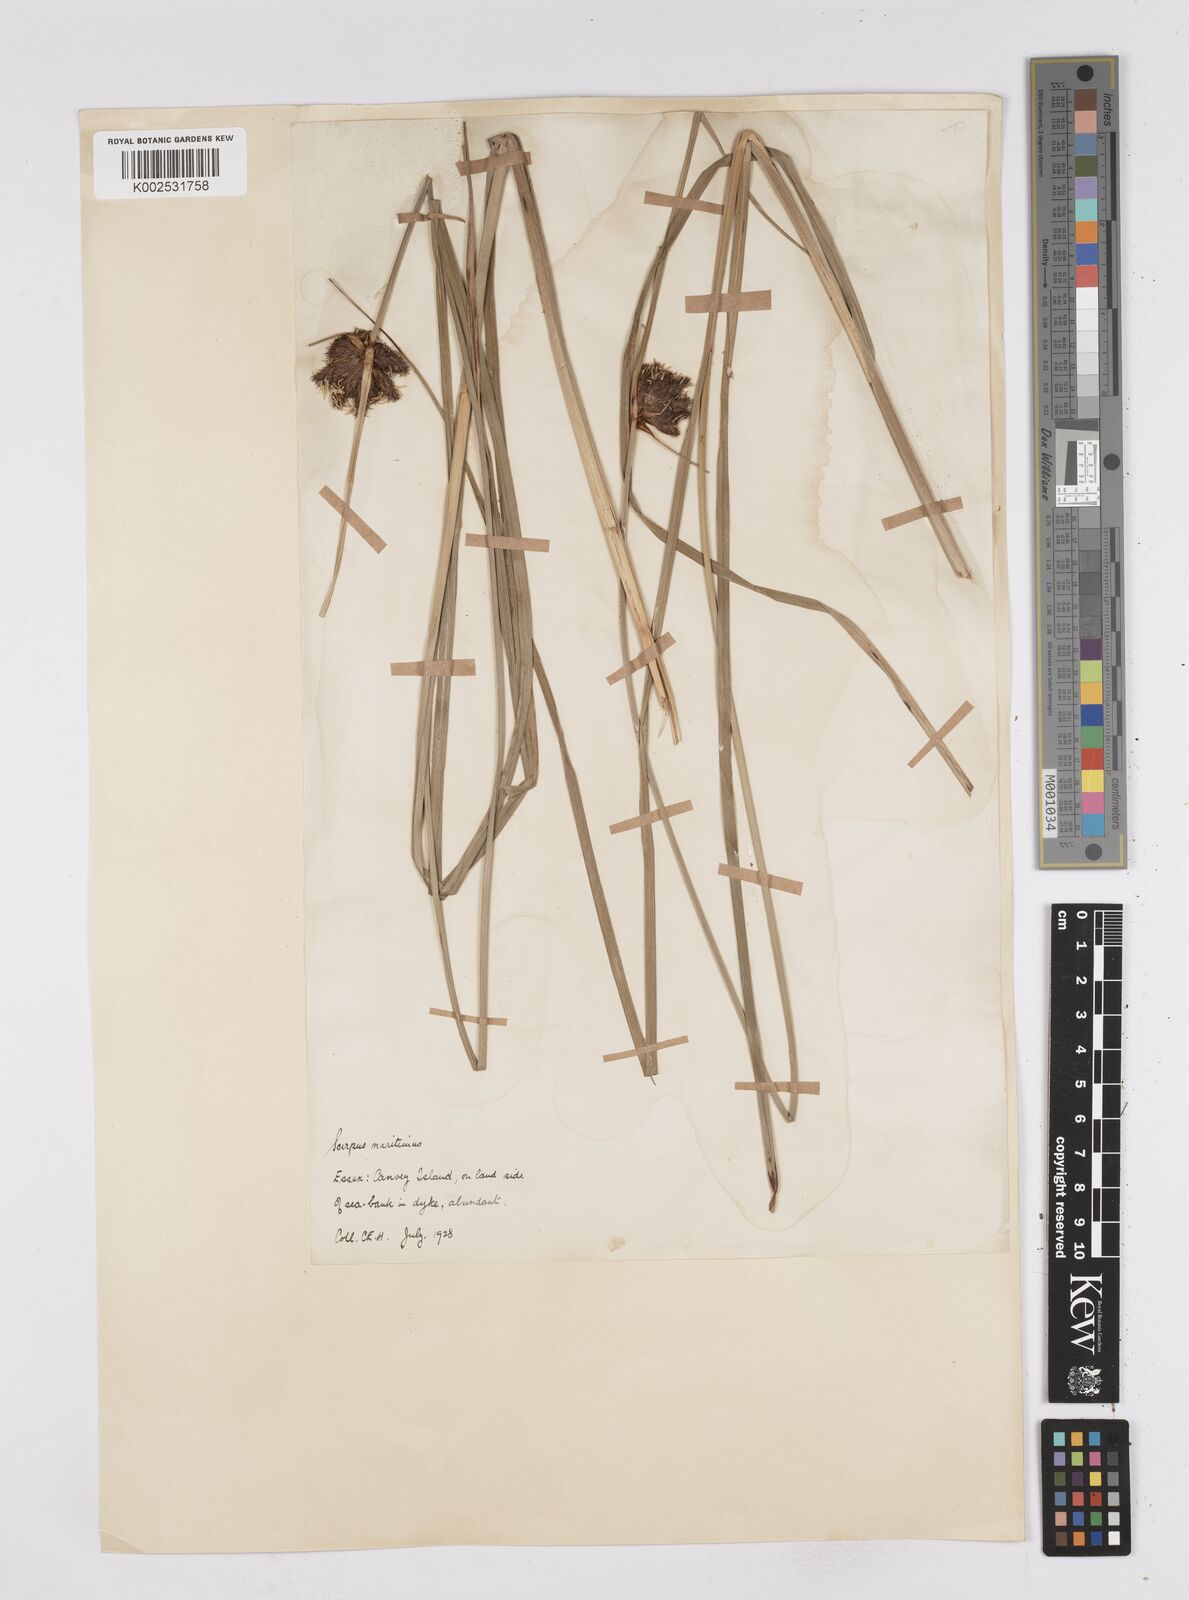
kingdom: Plantae
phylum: Tracheophyta
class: Liliopsida
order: Poales
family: Cyperaceae
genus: Bolboschoenus
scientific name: Bolboschoenus maritimus
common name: Sea club-rush
